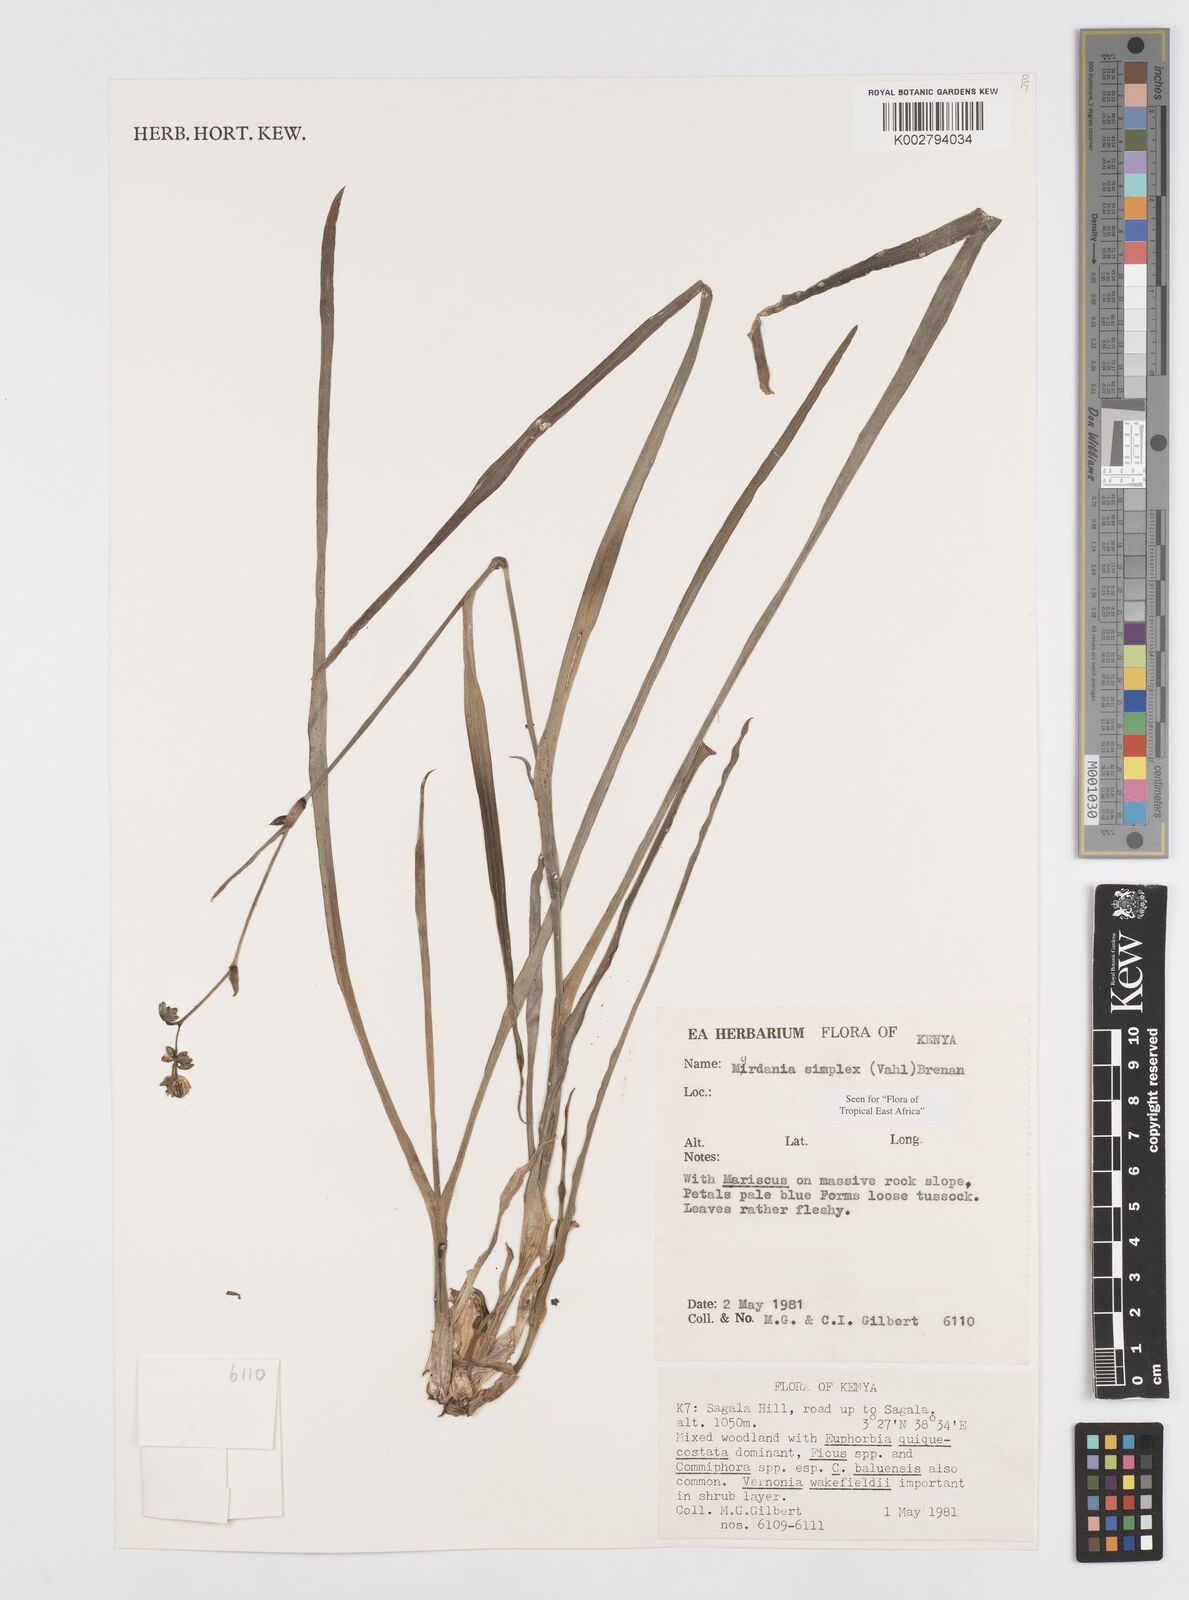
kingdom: Plantae
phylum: Tracheophyta
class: Liliopsida
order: Commelinales
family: Commelinaceae
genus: Murdannia
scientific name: Murdannia simplex
